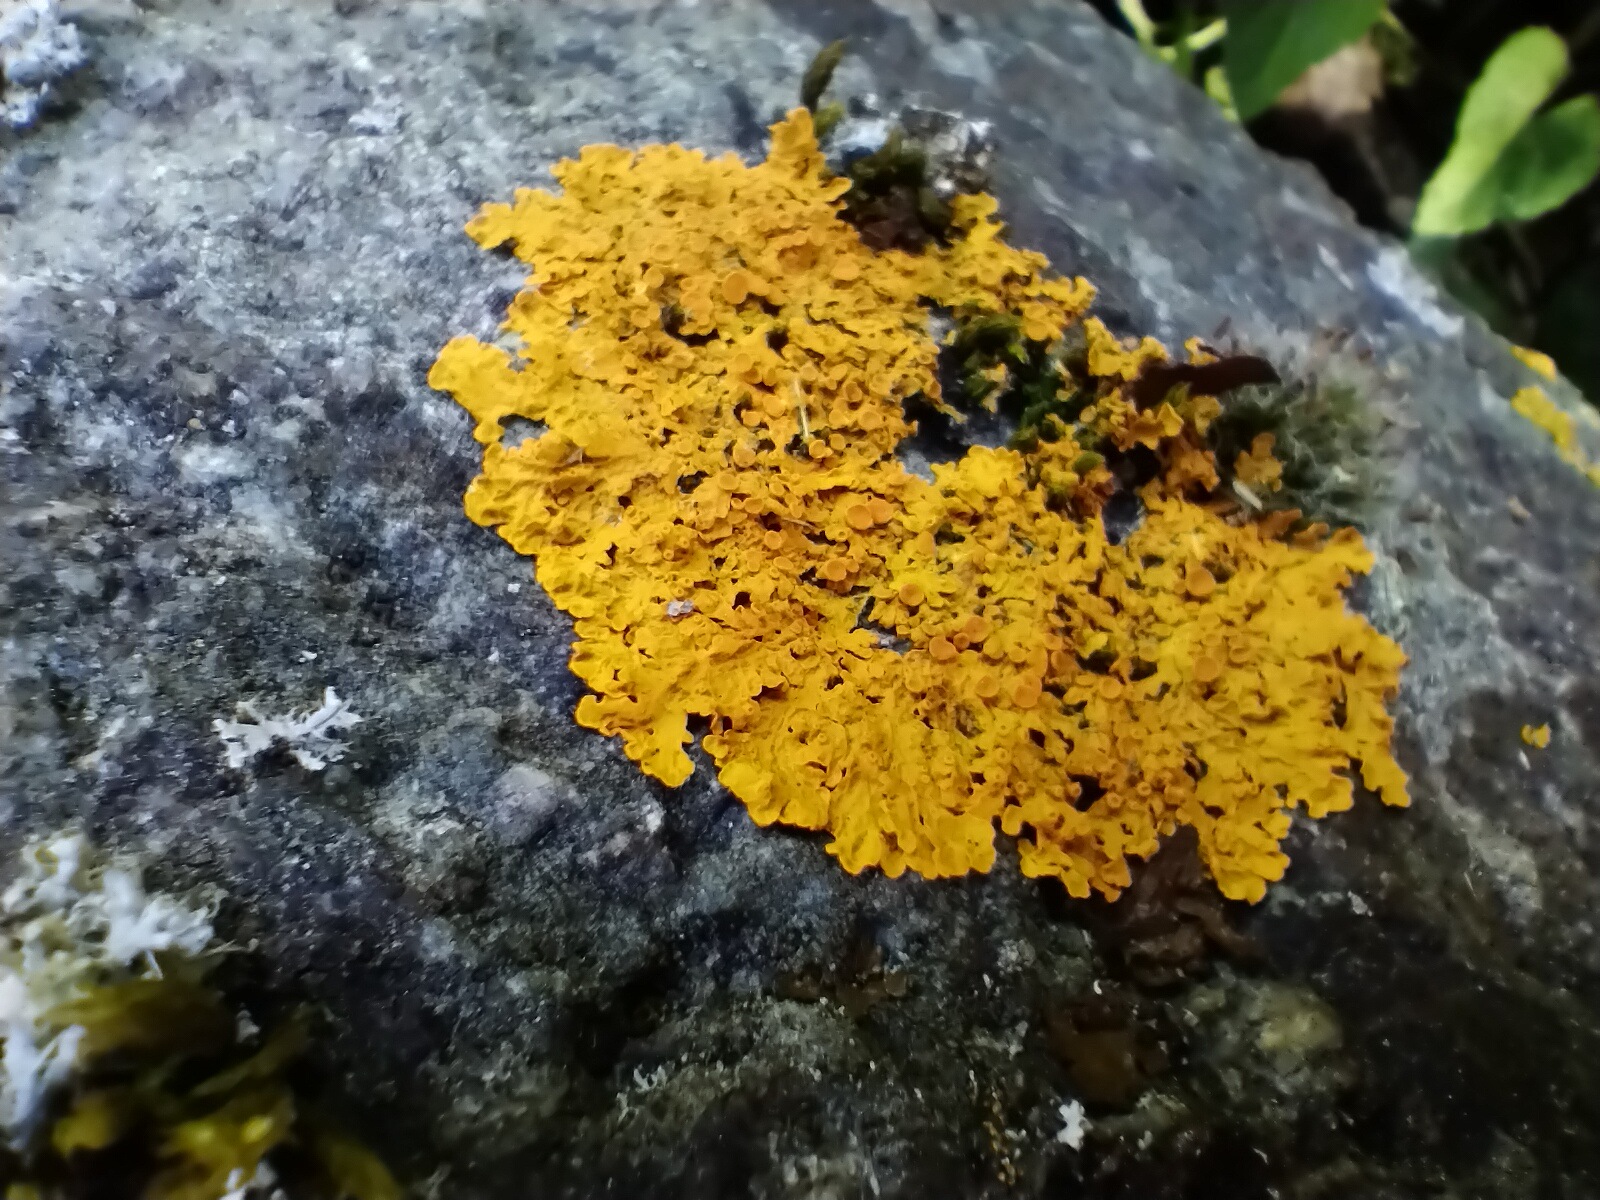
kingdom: Fungi
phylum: Ascomycota
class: Lecanoromycetes
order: Teloschistales
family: Teloschistaceae
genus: Xanthoria
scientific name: Xanthoria parietina
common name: almindelig væggelav
